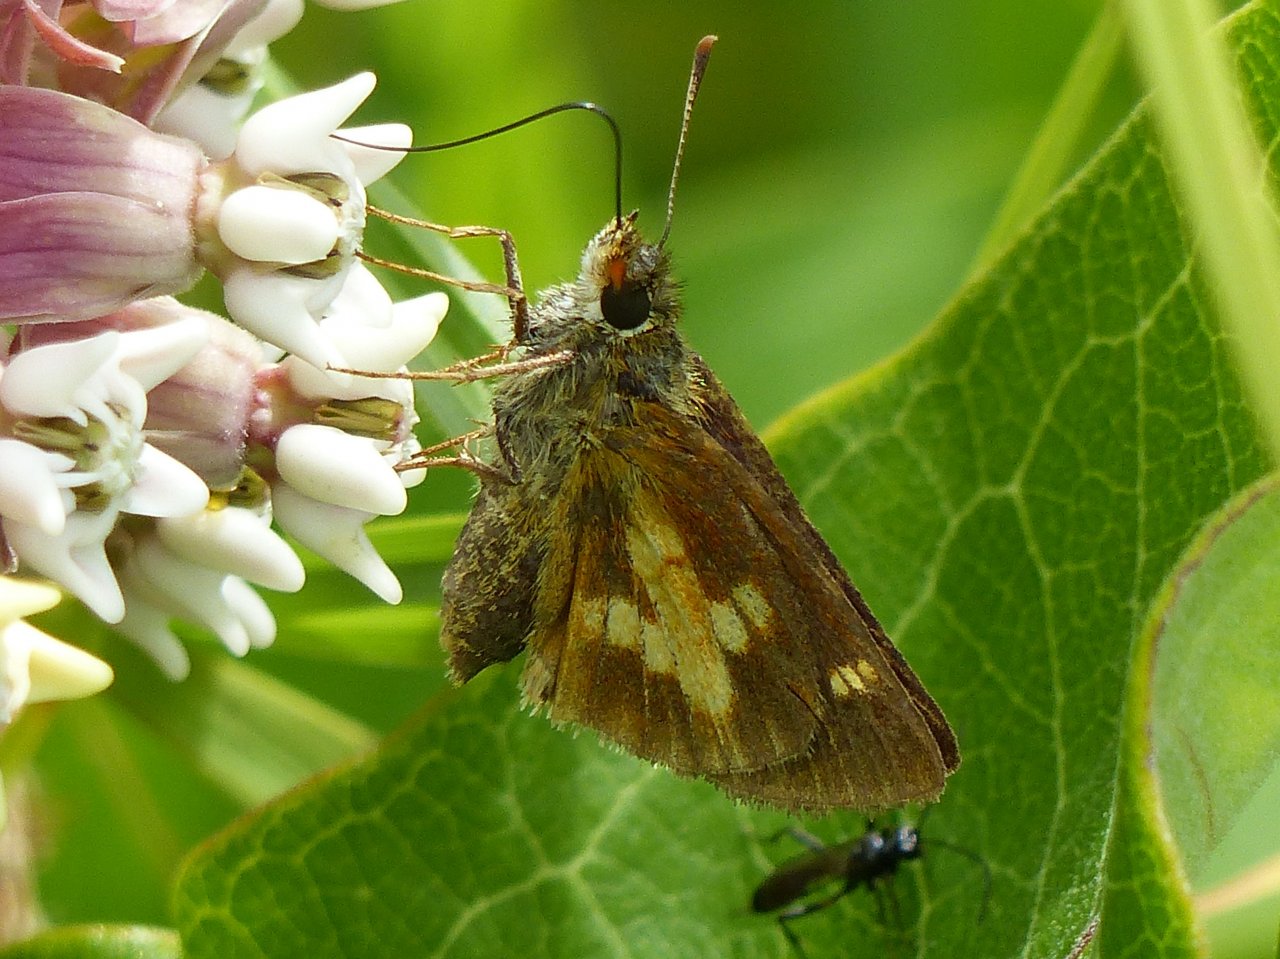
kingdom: Animalia
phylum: Arthropoda
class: Insecta
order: Lepidoptera
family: Hesperiidae
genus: Poanes
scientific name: Poanes massasoit
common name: Mulberry Wing
